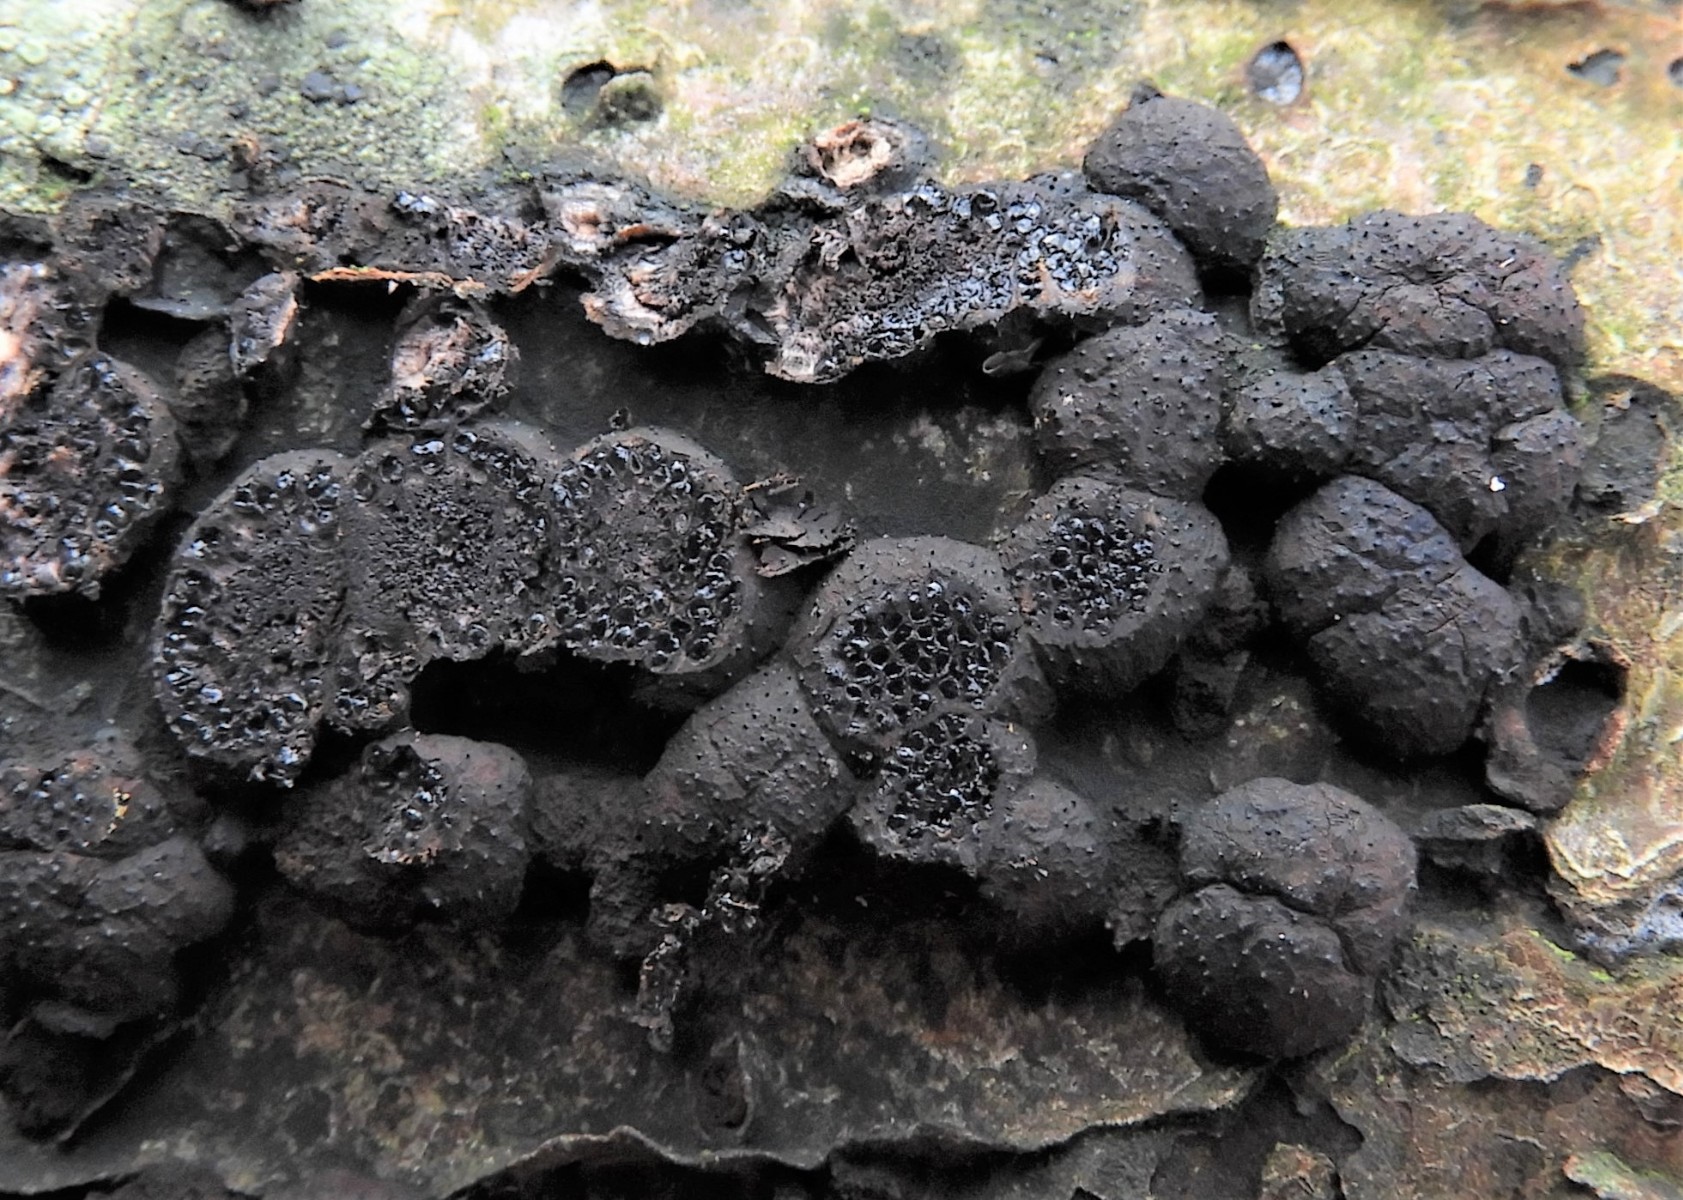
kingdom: Fungi
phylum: Ascomycota
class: Sordariomycetes
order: Xylariales
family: Hypoxylaceae
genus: Jackrogersella
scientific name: Jackrogersella cohaerens
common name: sammenflydende kulbær
